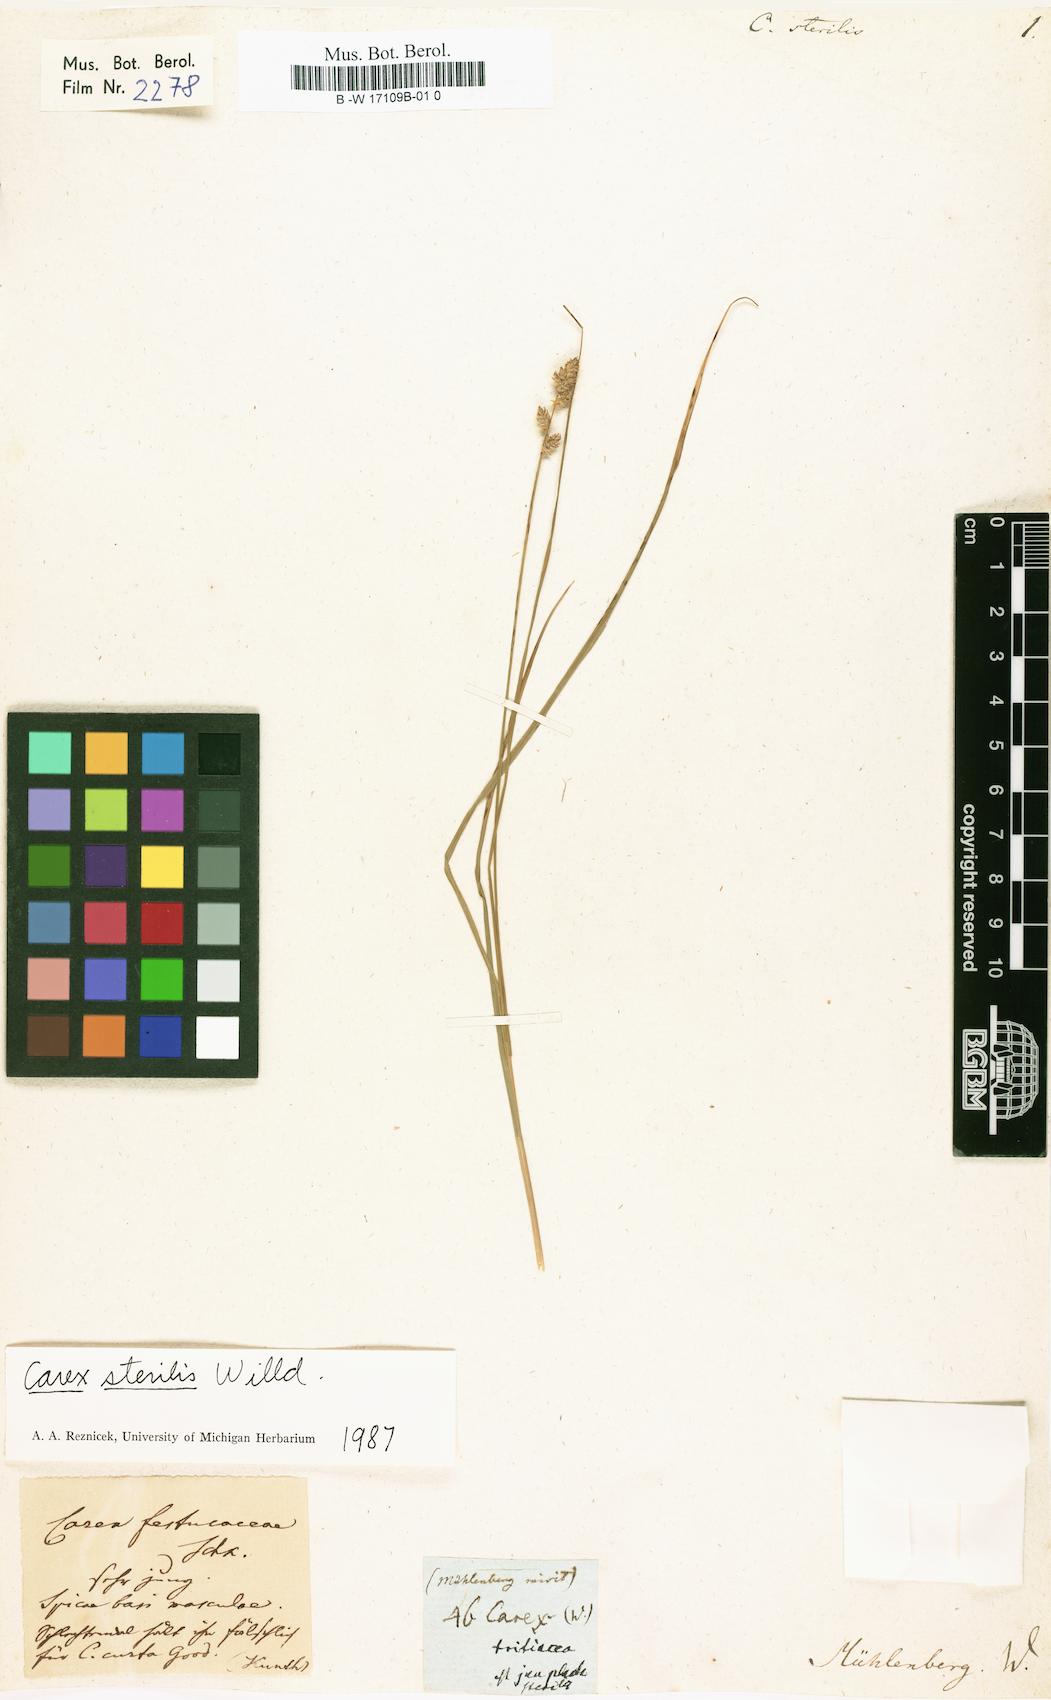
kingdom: Plantae
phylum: Tracheophyta
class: Liliopsida
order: Poales
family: Cyperaceae
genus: Carex
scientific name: Carex sterilis
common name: Dioecious sedge
